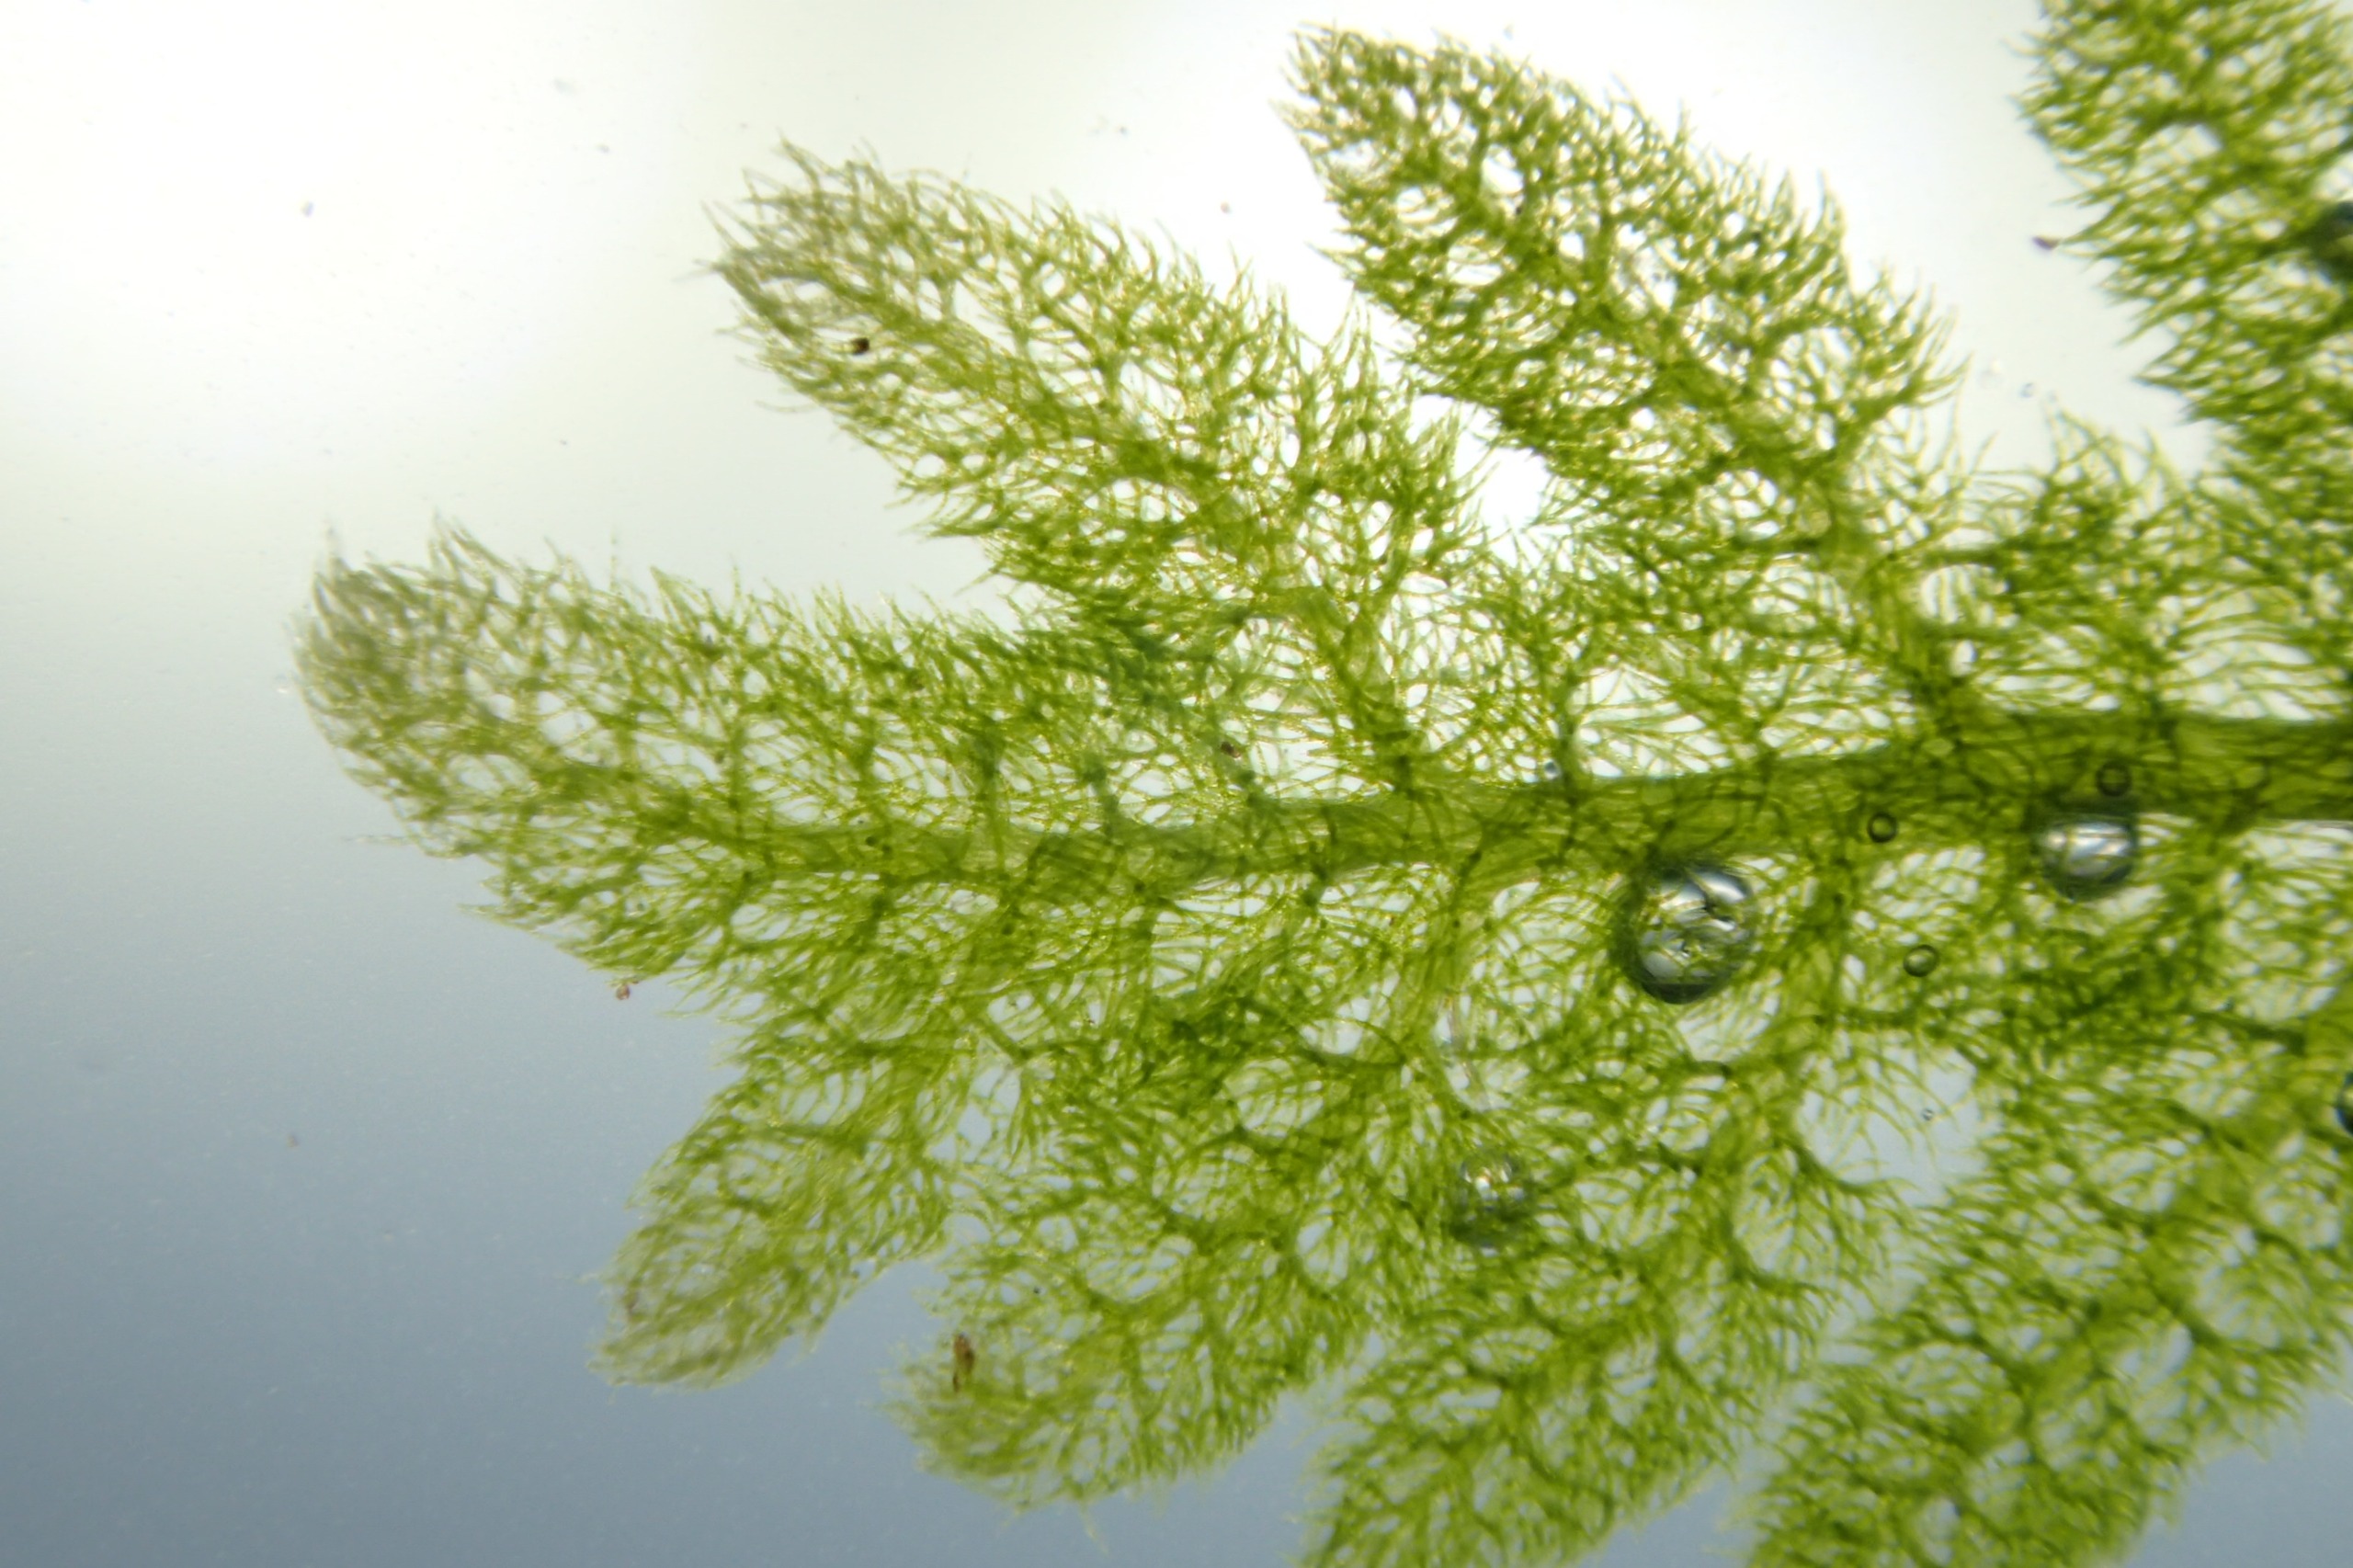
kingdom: Plantae
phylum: Marchantiophyta
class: Jungermanniopsida
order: Jungermanniales
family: Trichocoleaceae
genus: Trichocolea
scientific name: Trichocolea tomentella
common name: Bleg dunmos
